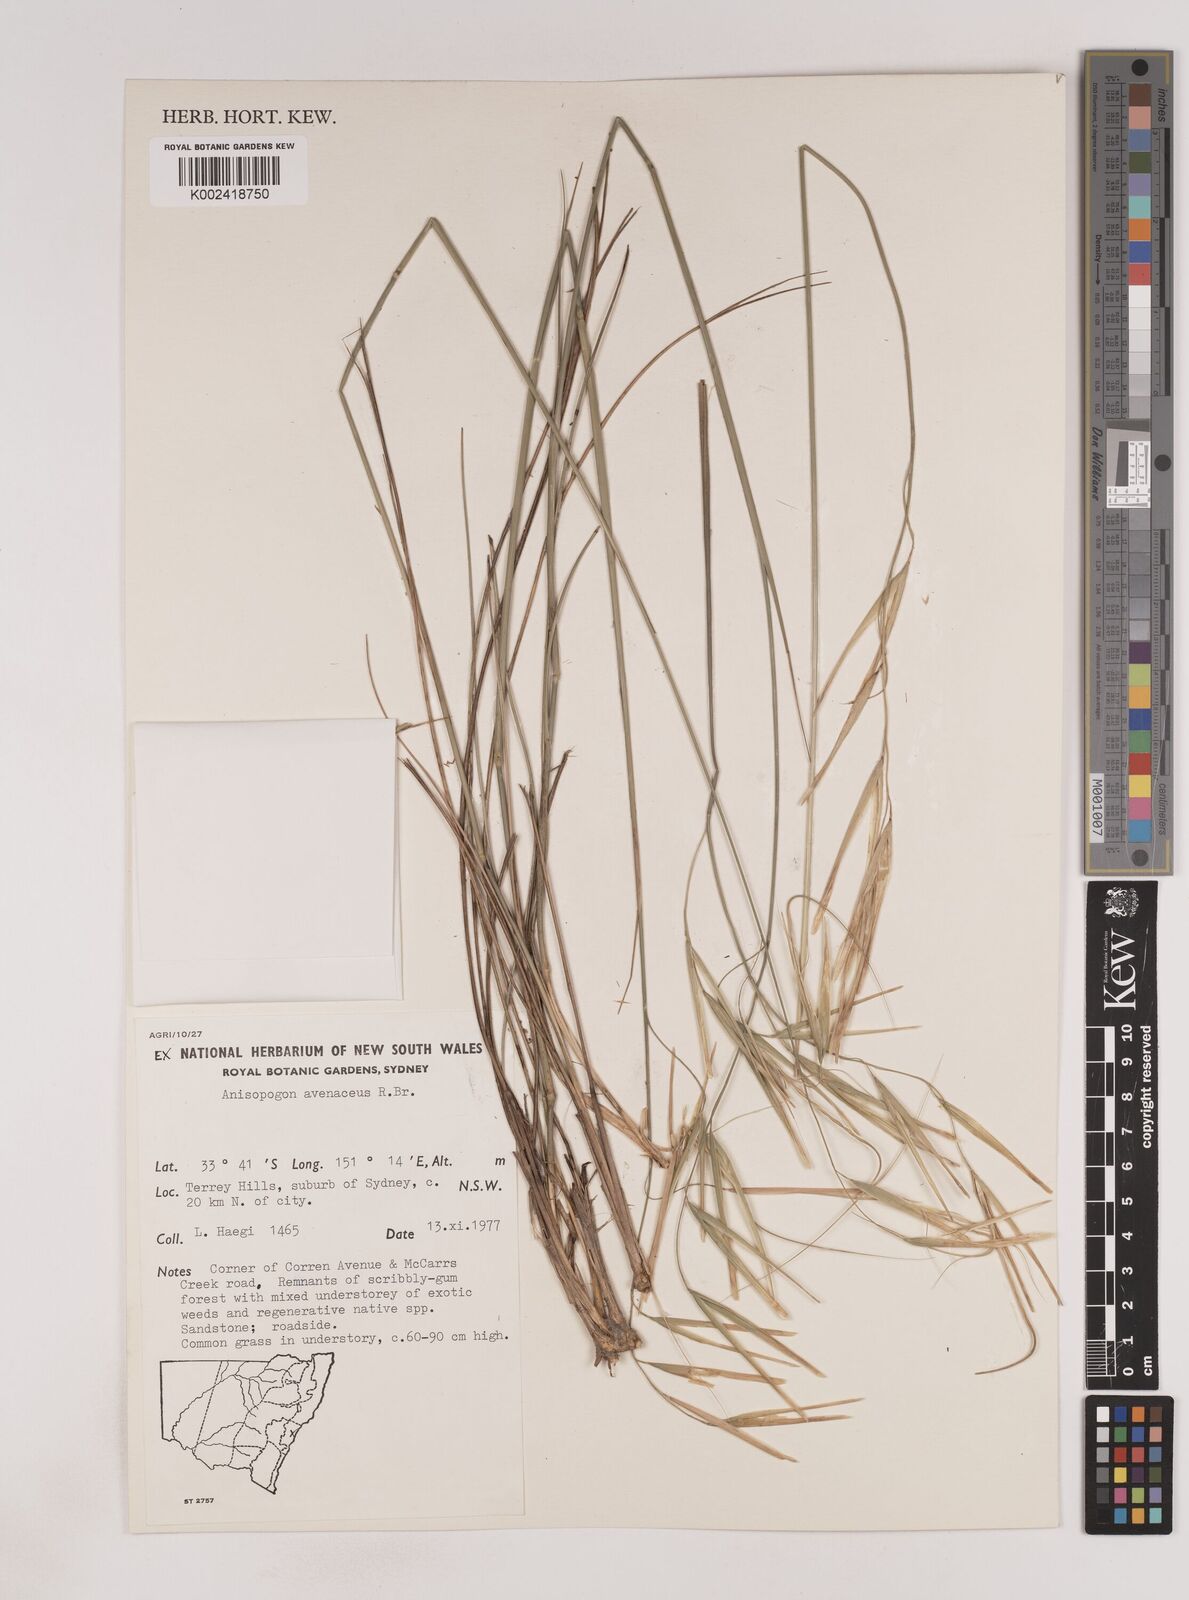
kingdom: Plantae
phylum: Tracheophyta
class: Liliopsida
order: Poales
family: Poaceae
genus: Anisopogon
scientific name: Anisopogon avenaceus
